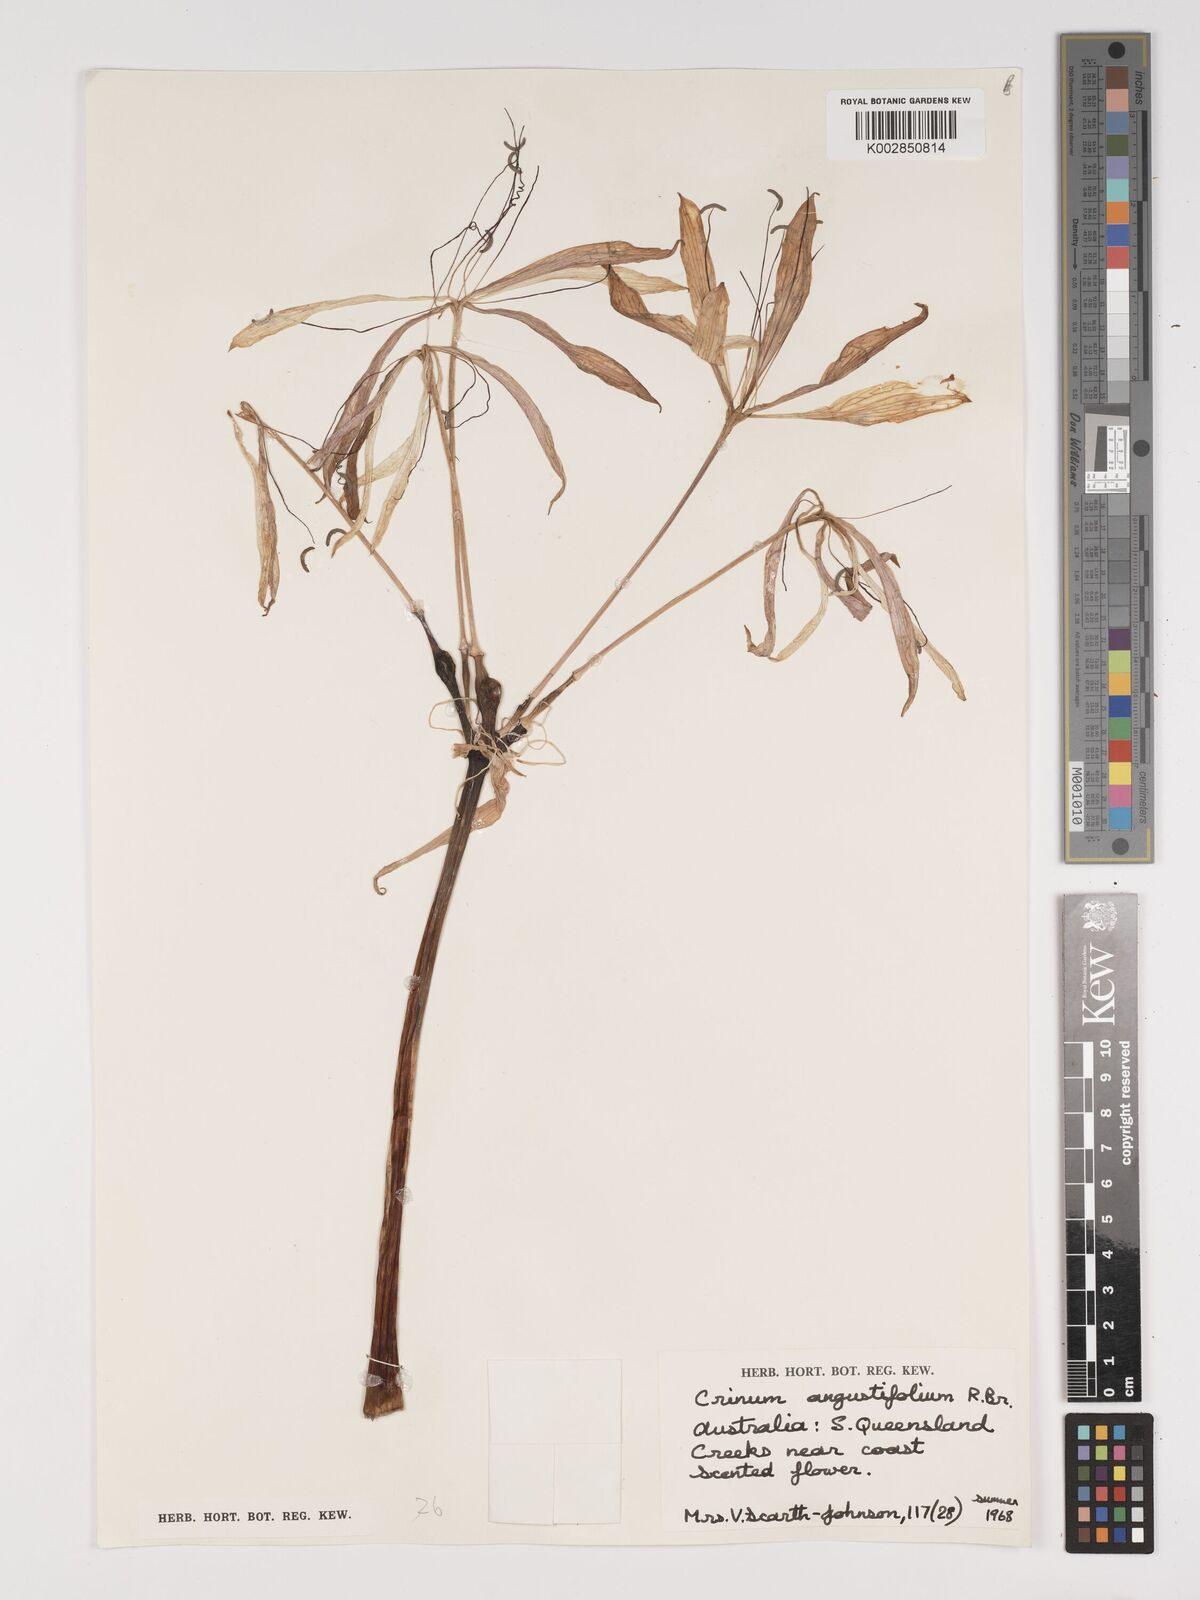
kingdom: Plantae
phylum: Tracheophyta
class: Liliopsida
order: Asparagales
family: Amaryllidaceae
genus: Crinum
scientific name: Crinum arenarium
